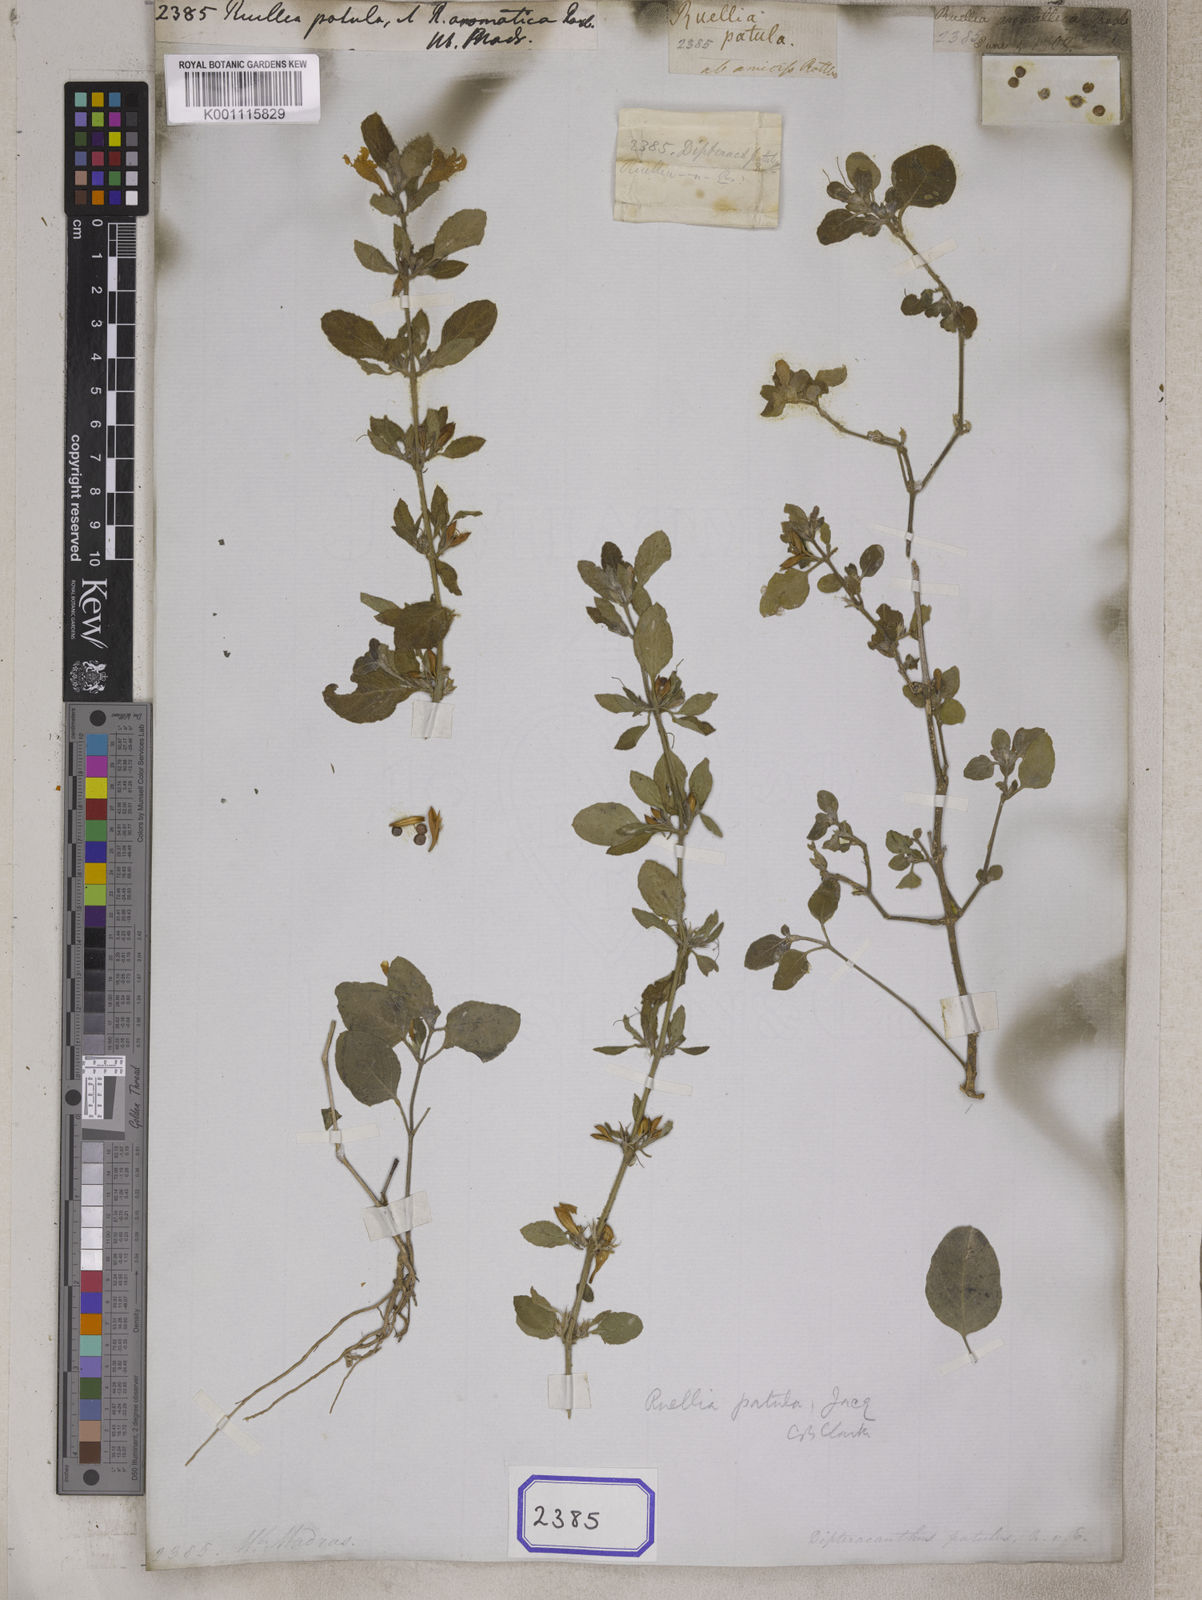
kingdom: Plantae
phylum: Tracheophyta
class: Magnoliopsida
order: Lamiales
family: Acanthaceae
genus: Ruellia
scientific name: Ruellia patula
